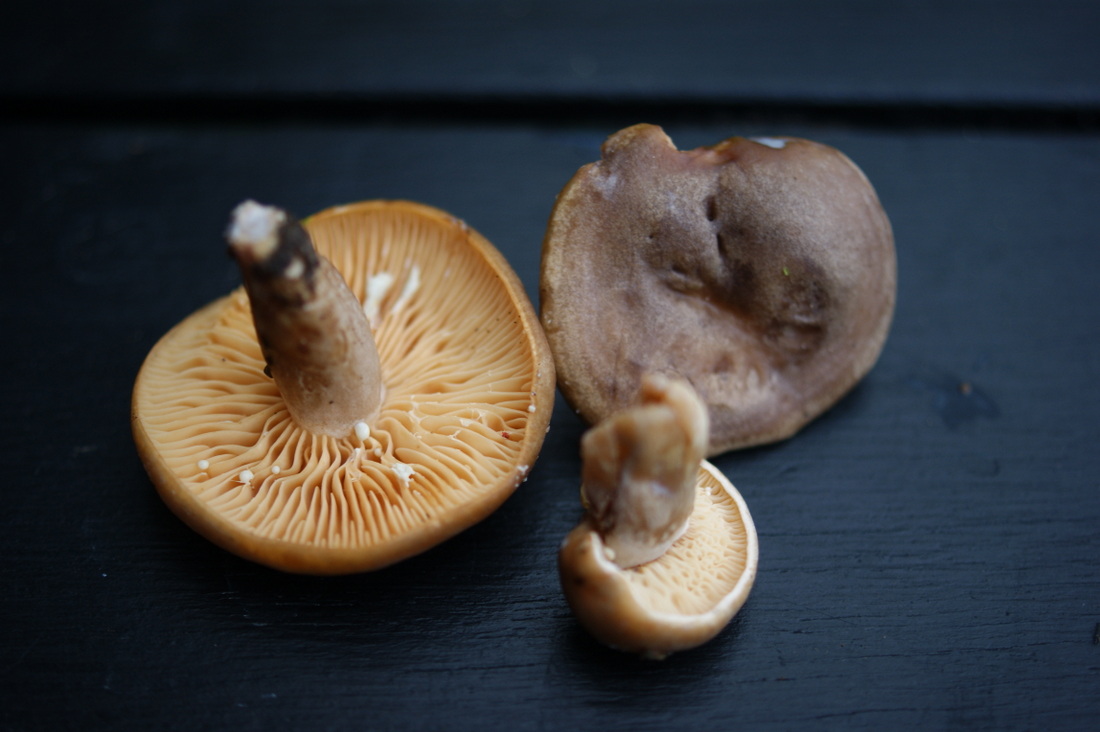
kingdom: Fungi
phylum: Basidiomycota
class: Agaricomycetes
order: Russulales
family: Russulaceae
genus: Lactarius
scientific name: Lactarius pyrogalus
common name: hassel-mælkehat
